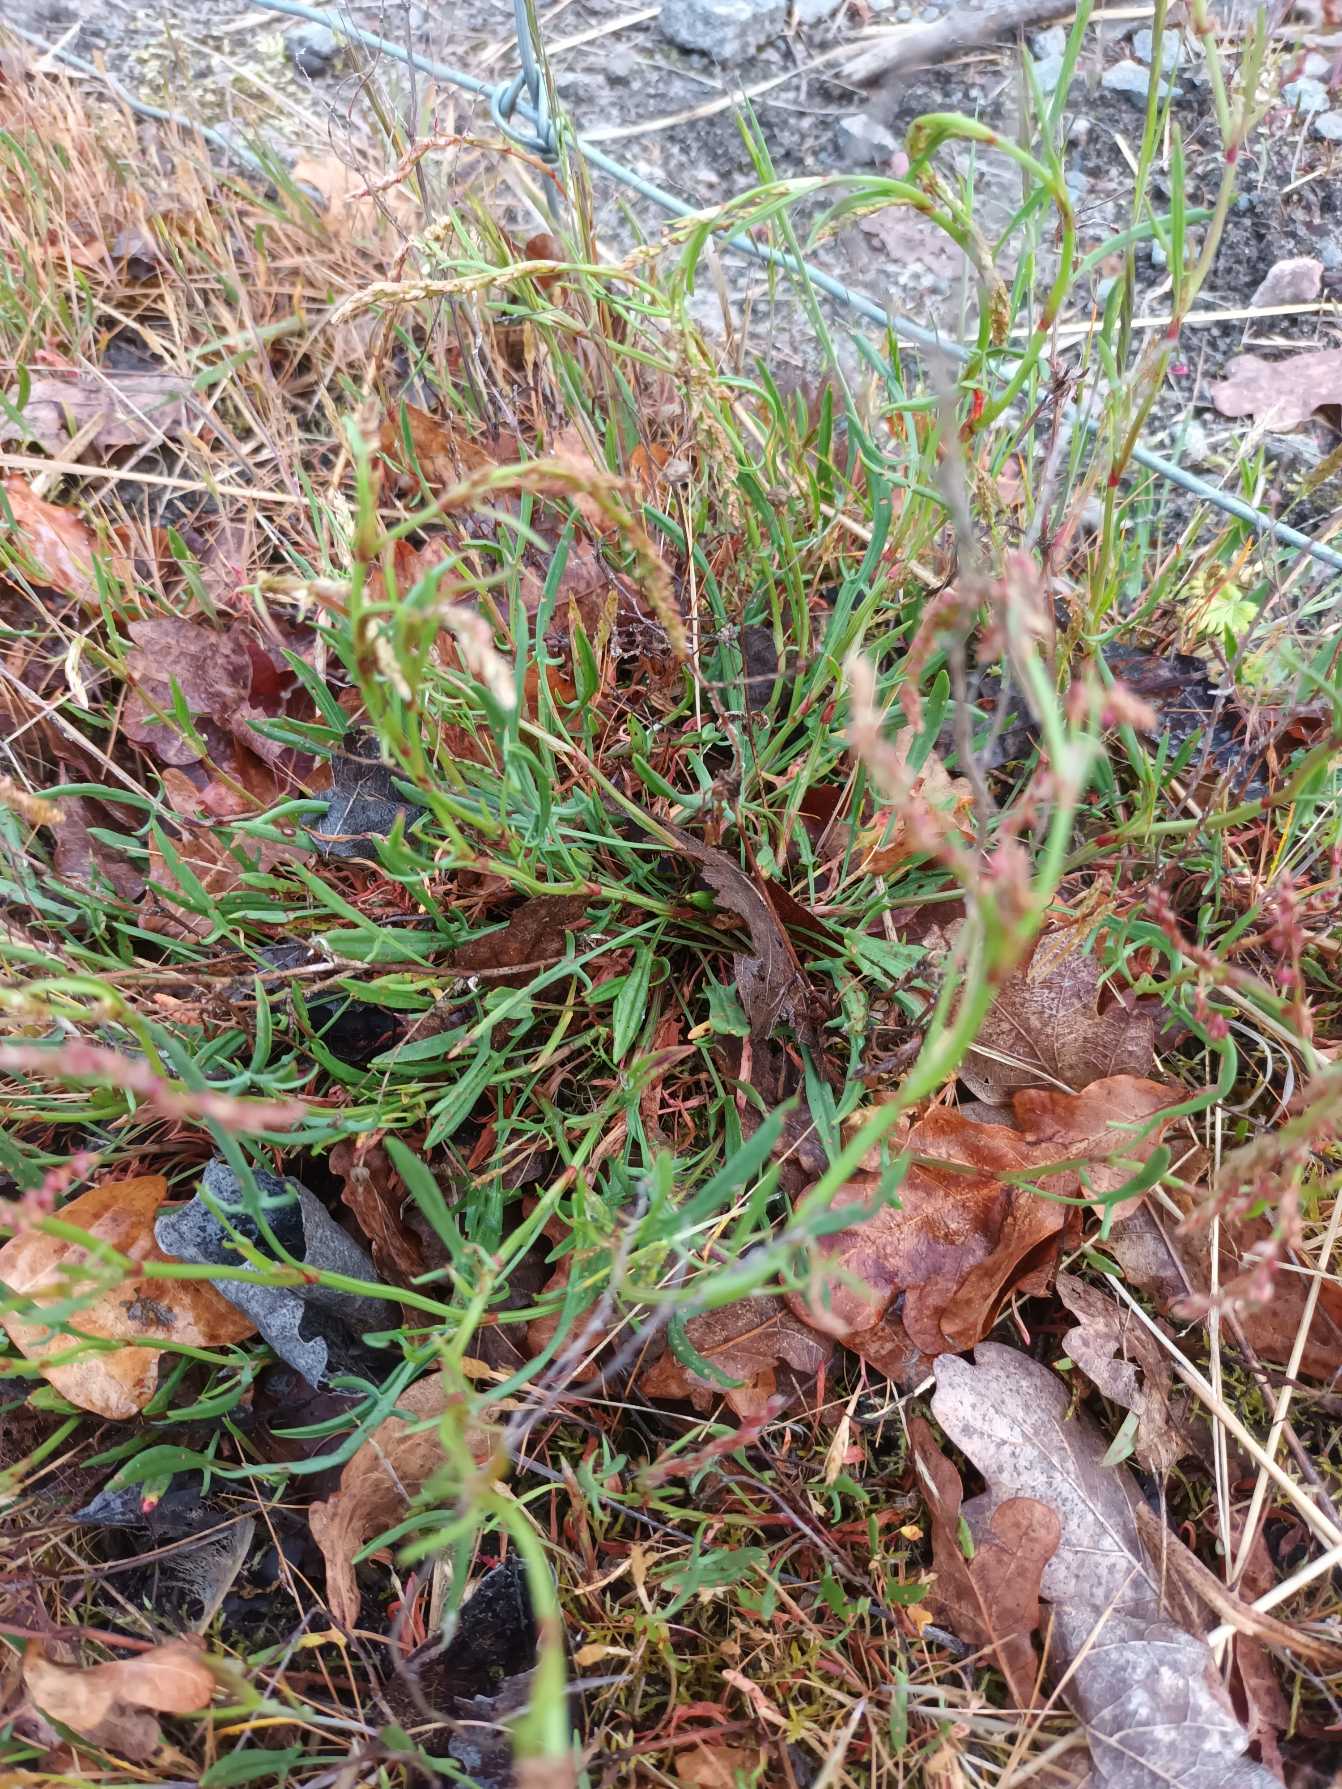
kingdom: Plantae
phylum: Tracheophyta
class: Magnoliopsida
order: Caryophyllales
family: Polygonaceae
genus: Rumex
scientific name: Rumex acetosella
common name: Rødknæ
